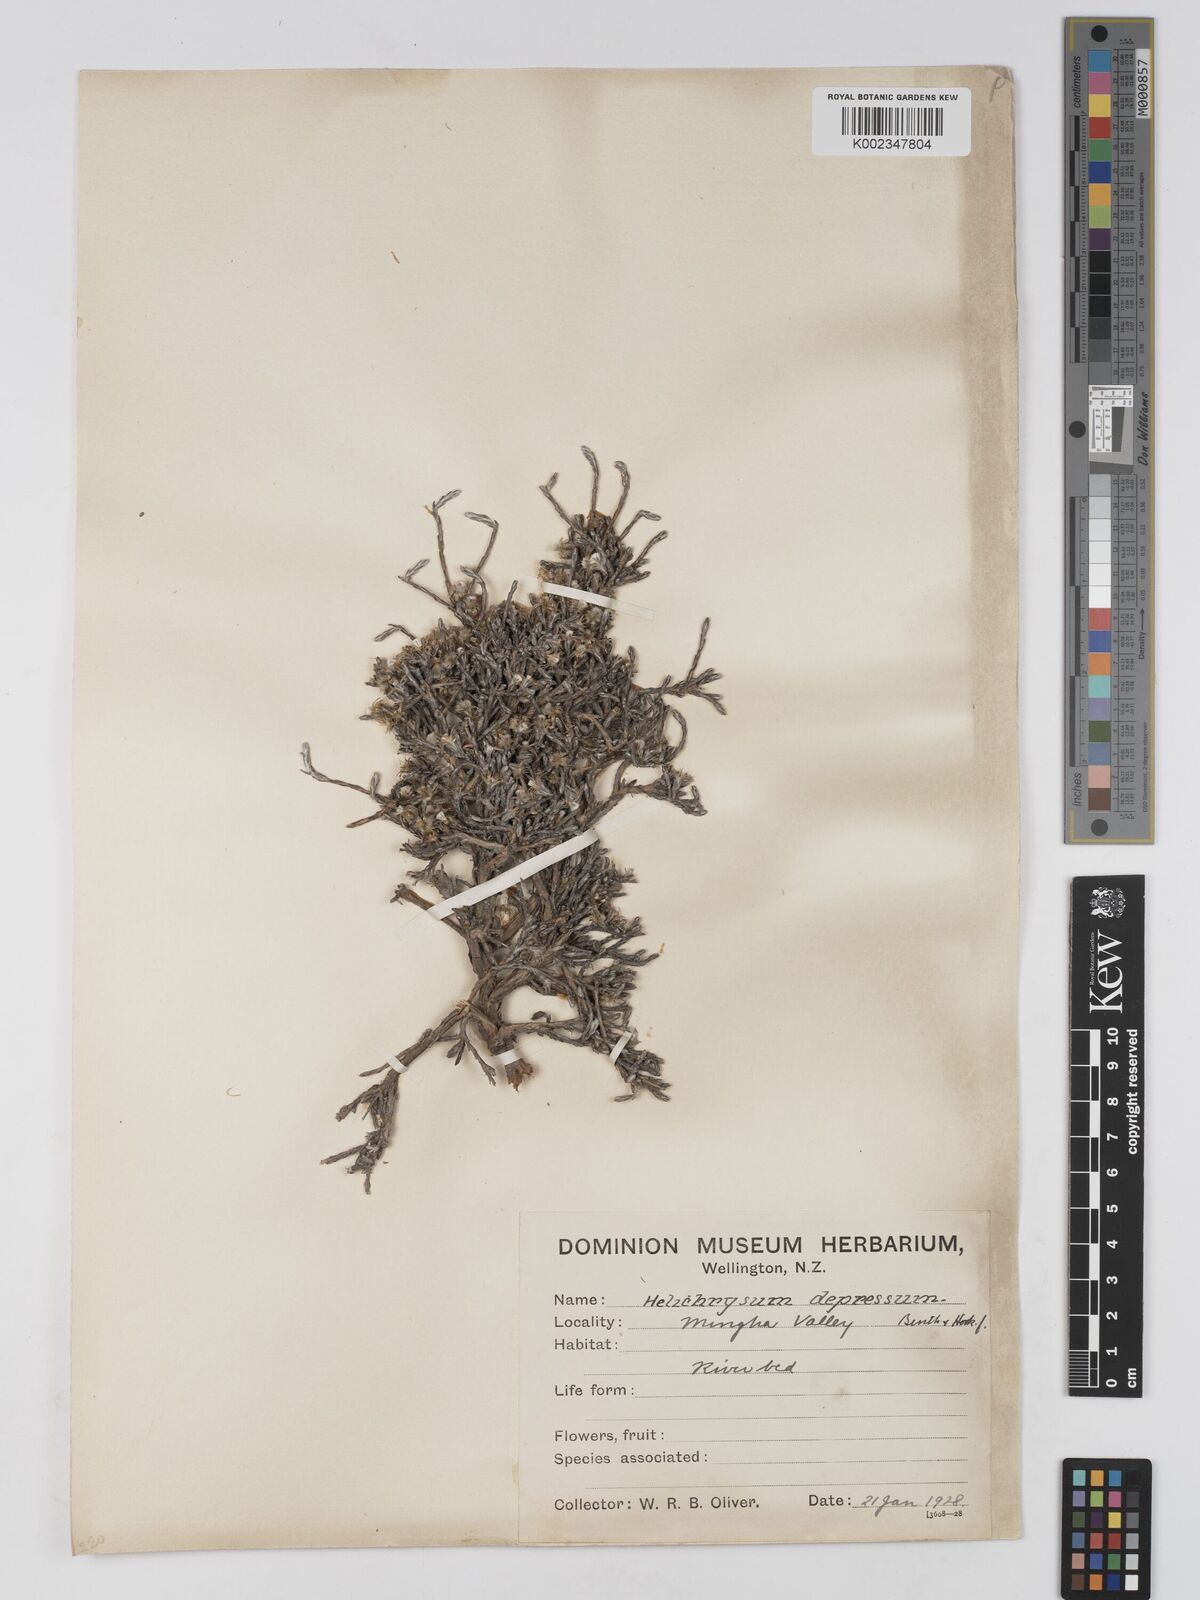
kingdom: Plantae
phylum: Tracheophyta
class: Magnoliopsida
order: Asterales
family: Asteraceae
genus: Ozothamnus
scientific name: Ozothamnus depressus
